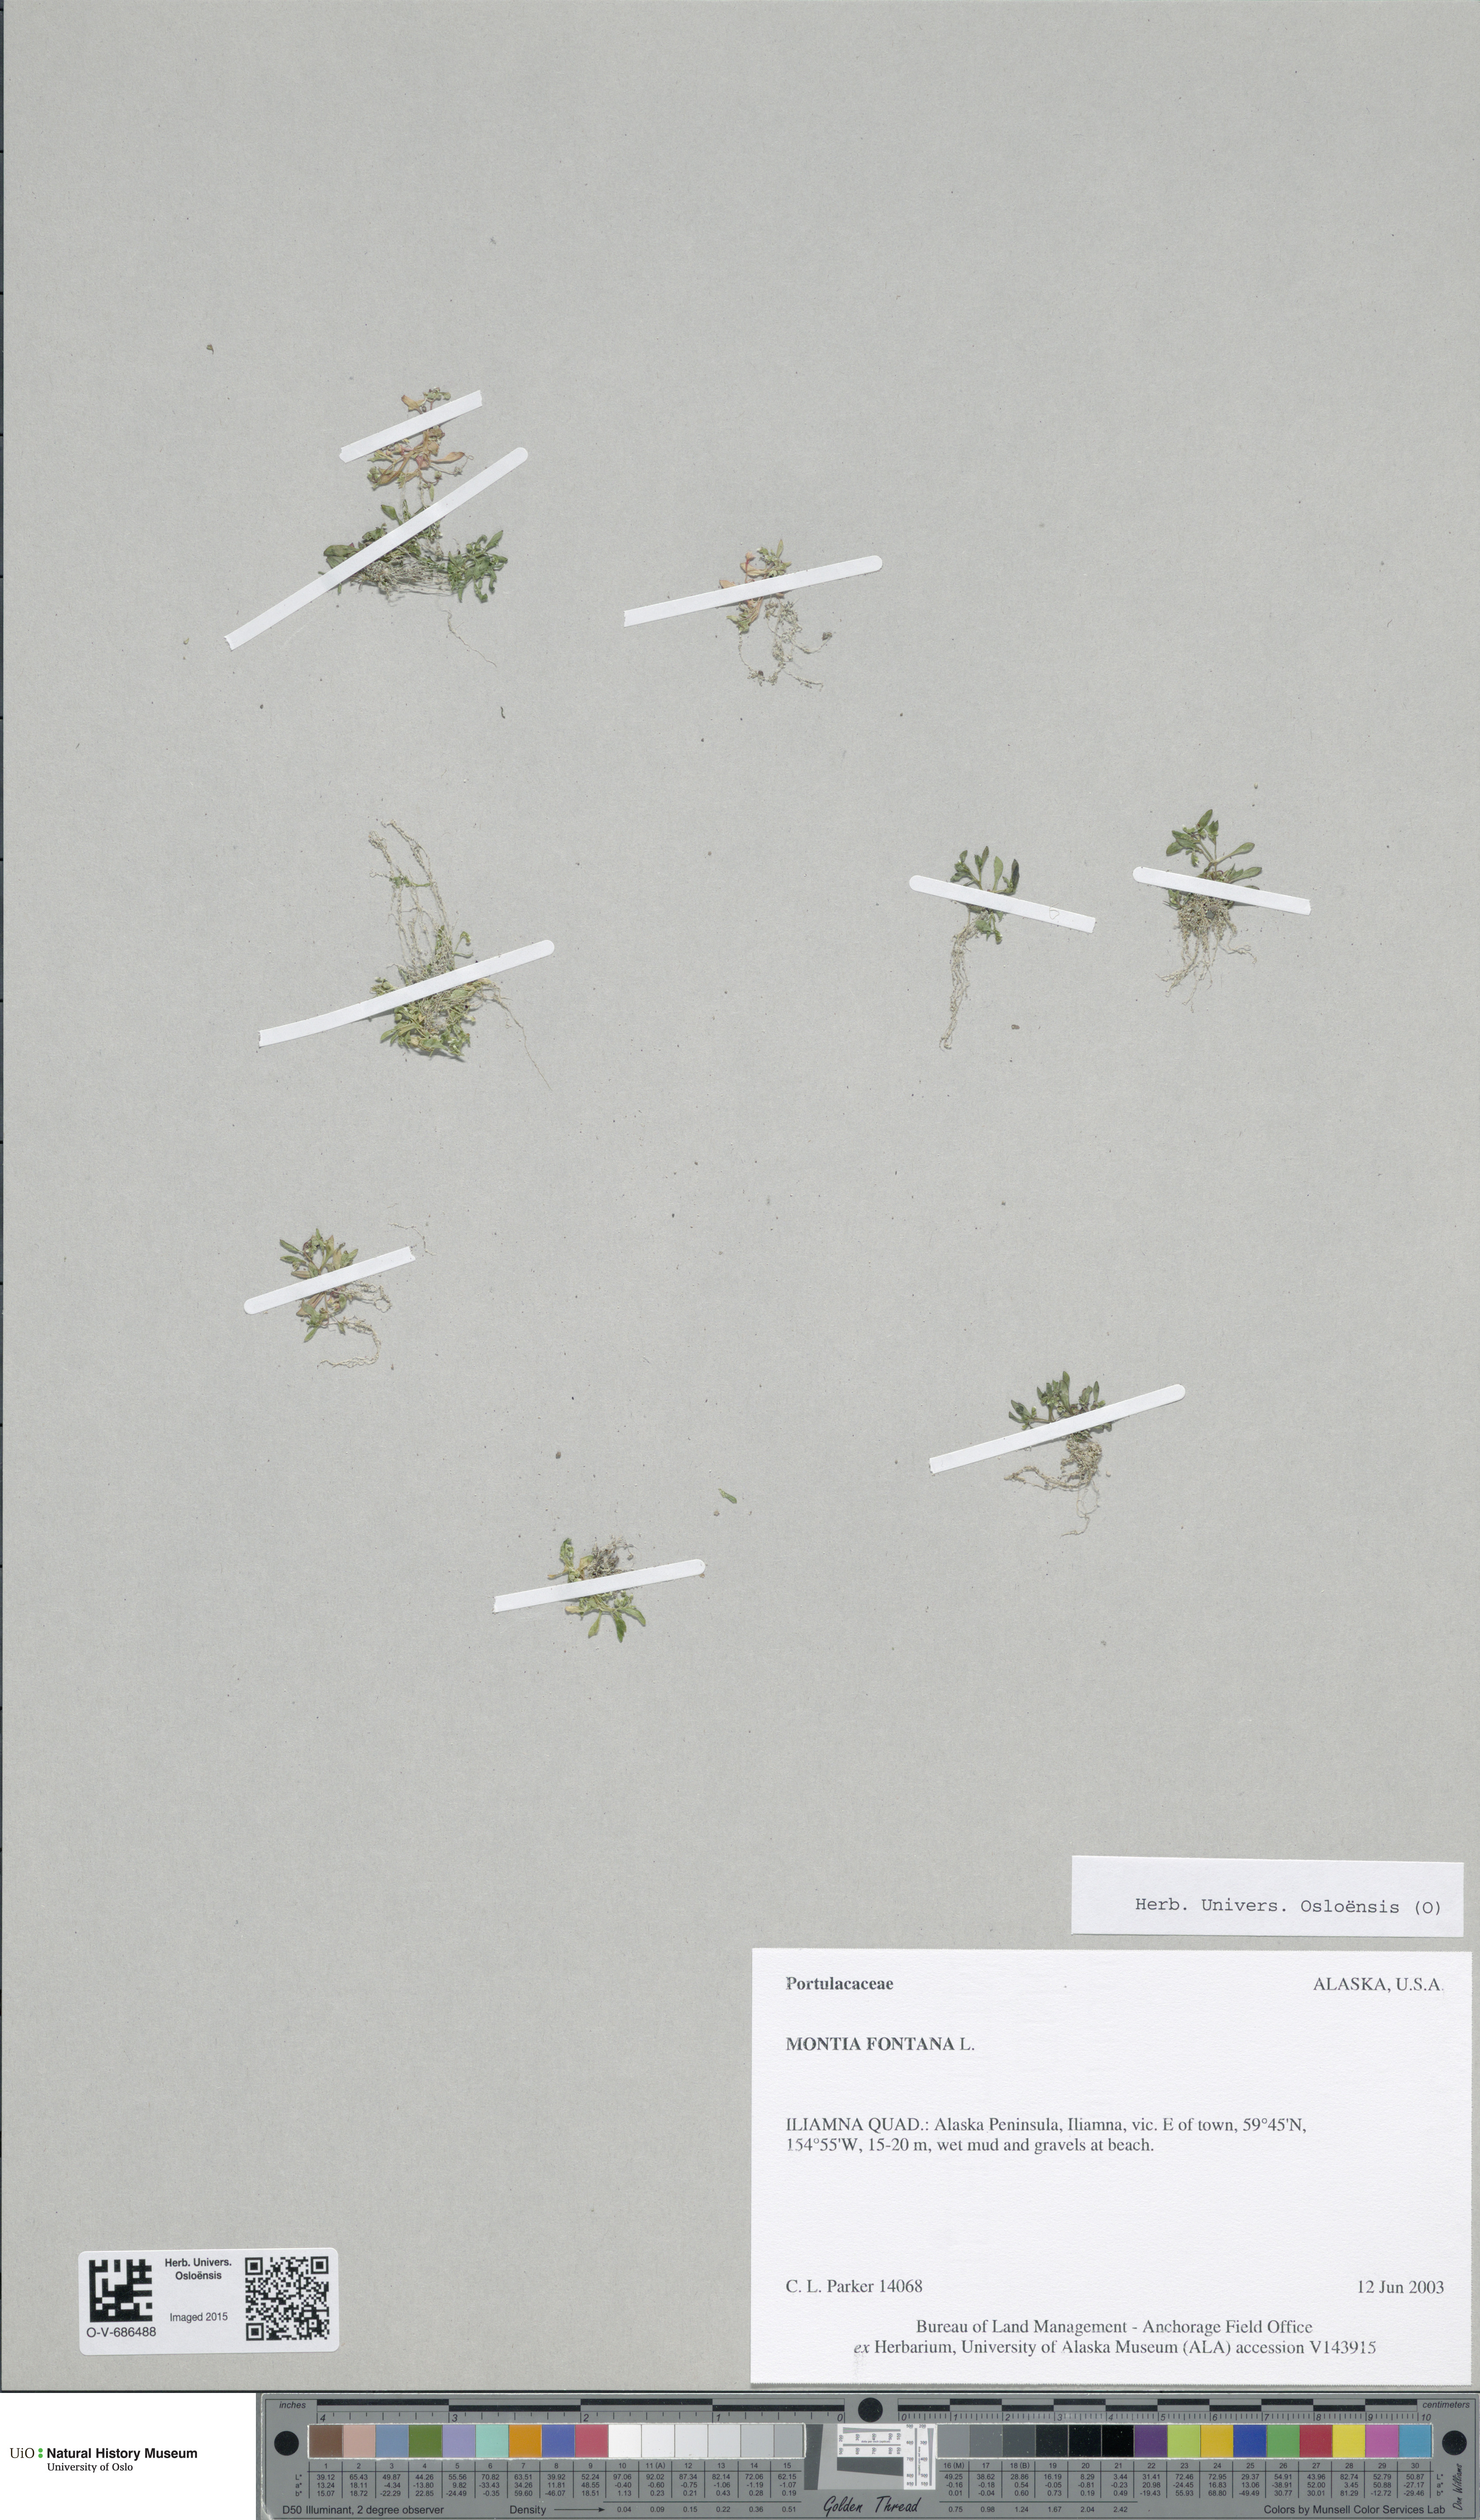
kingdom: Plantae
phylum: Tracheophyta
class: Magnoliopsida
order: Caryophyllales
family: Montiaceae
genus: Montia
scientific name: Montia fontana
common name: Blinks
